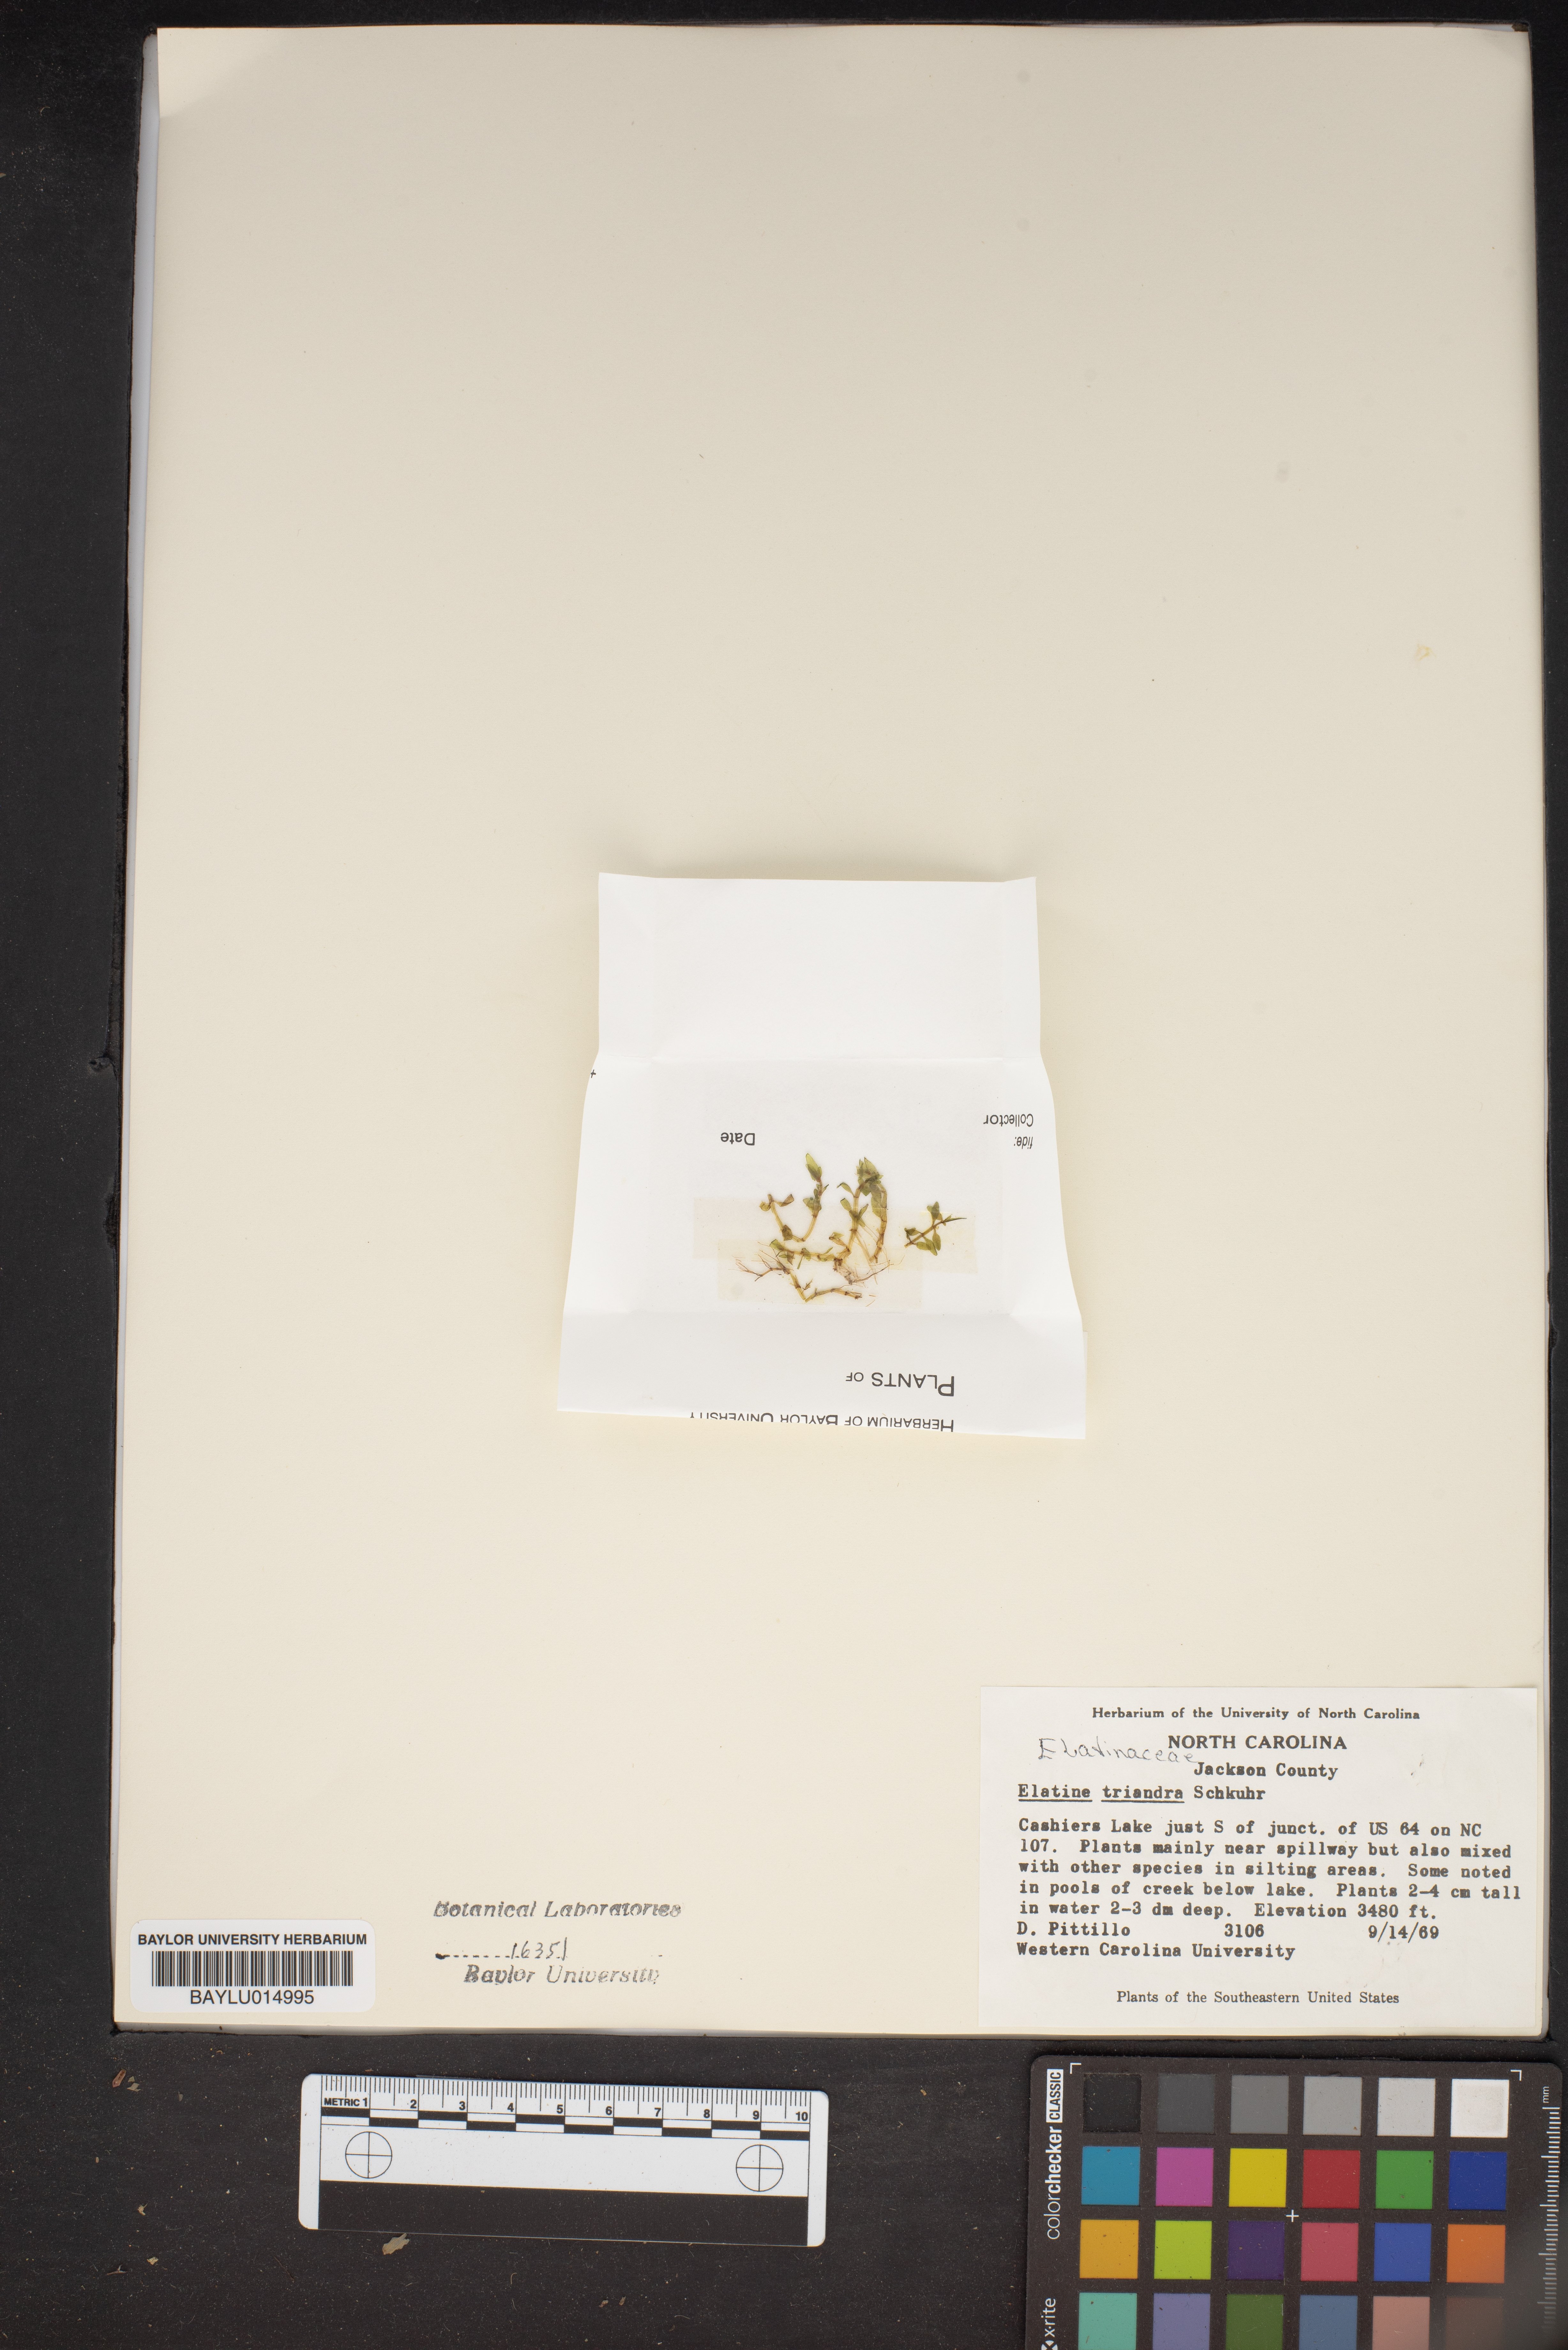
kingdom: Plantae
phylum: Tracheophyta
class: Magnoliopsida
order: Malpighiales
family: Elatinaceae
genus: Elatine
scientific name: Elatine triandra
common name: Three-stamened waterwort
